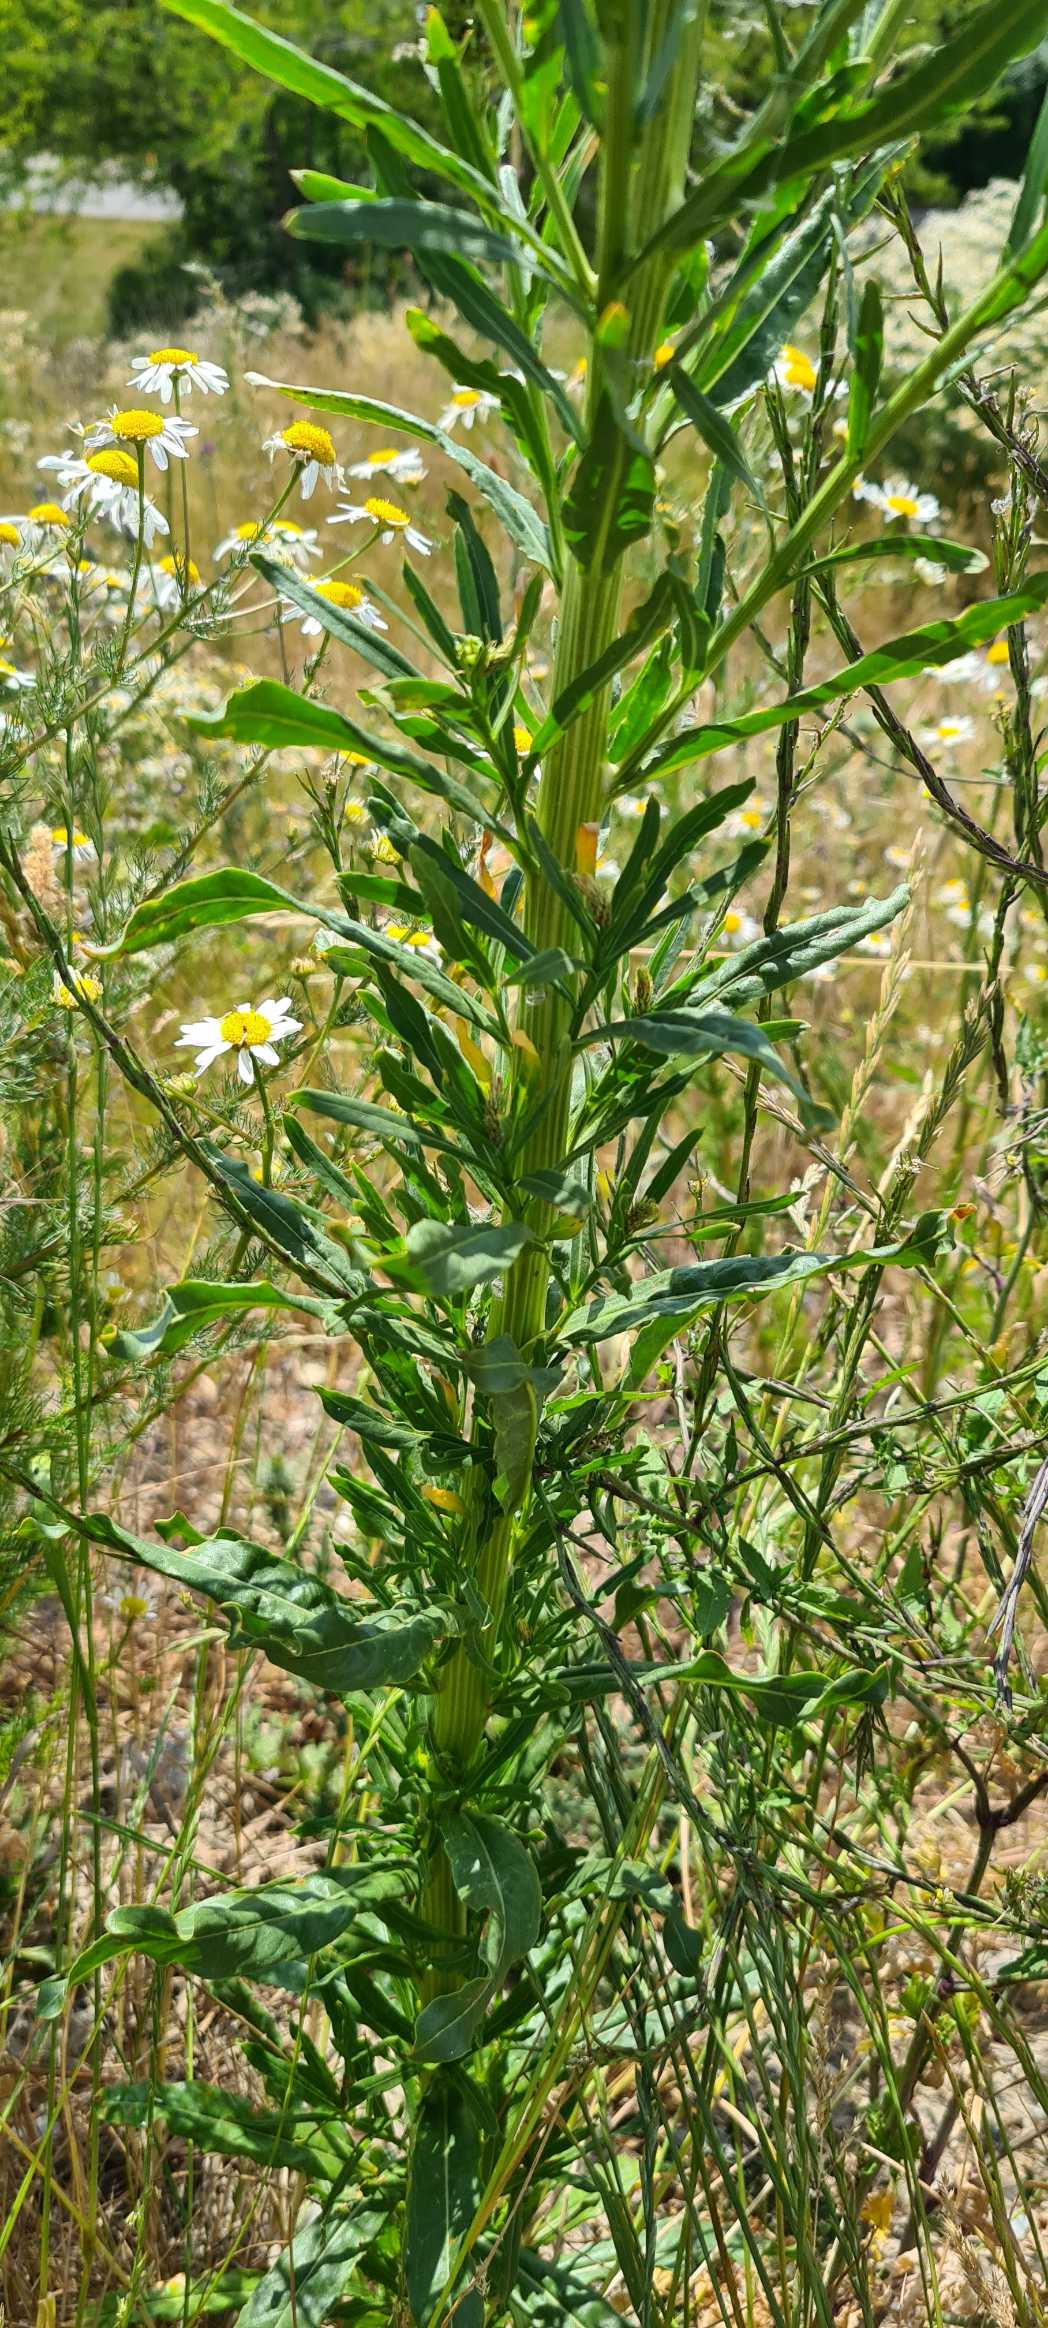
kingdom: Plantae
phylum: Tracheophyta
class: Magnoliopsida
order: Brassicales
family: Resedaceae
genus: Reseda
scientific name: Reseda luteola
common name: Farve-reseda
